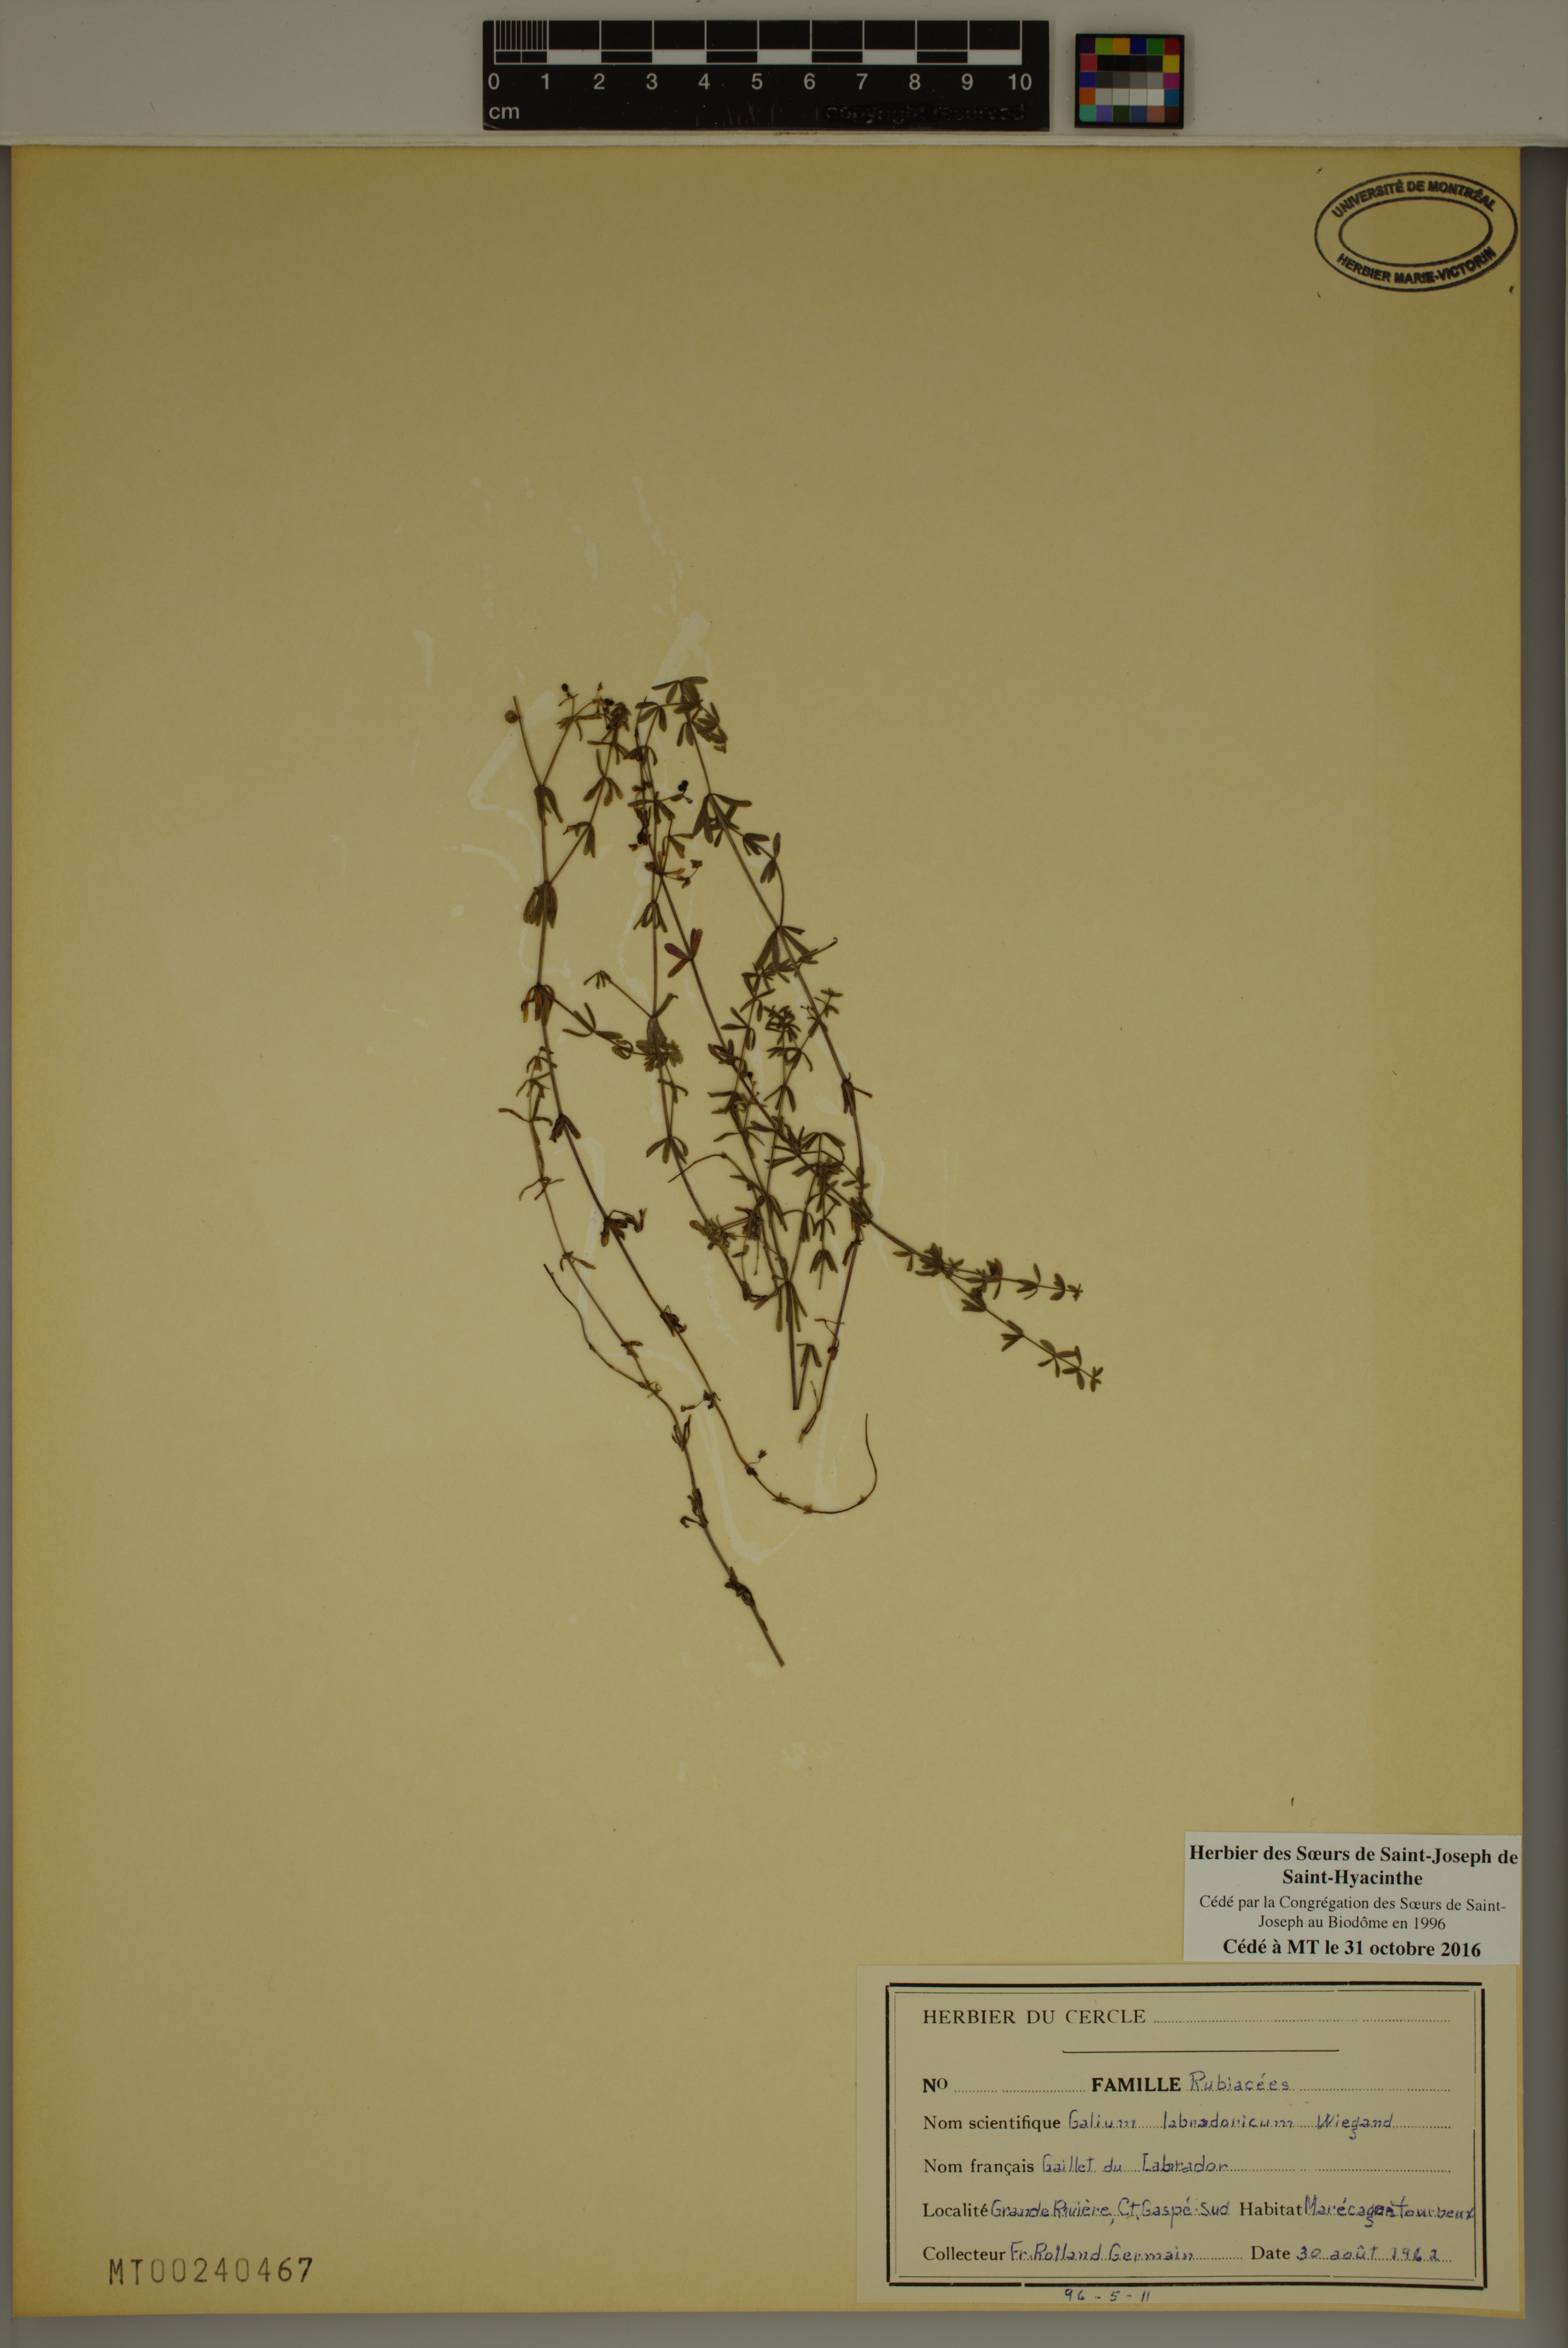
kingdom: Plantae
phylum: Tracheophyta
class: Magnoliopsida
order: Gentianales
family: Rubiaceae
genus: Galium
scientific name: Galium labradoricum
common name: Labrador bedstraw
